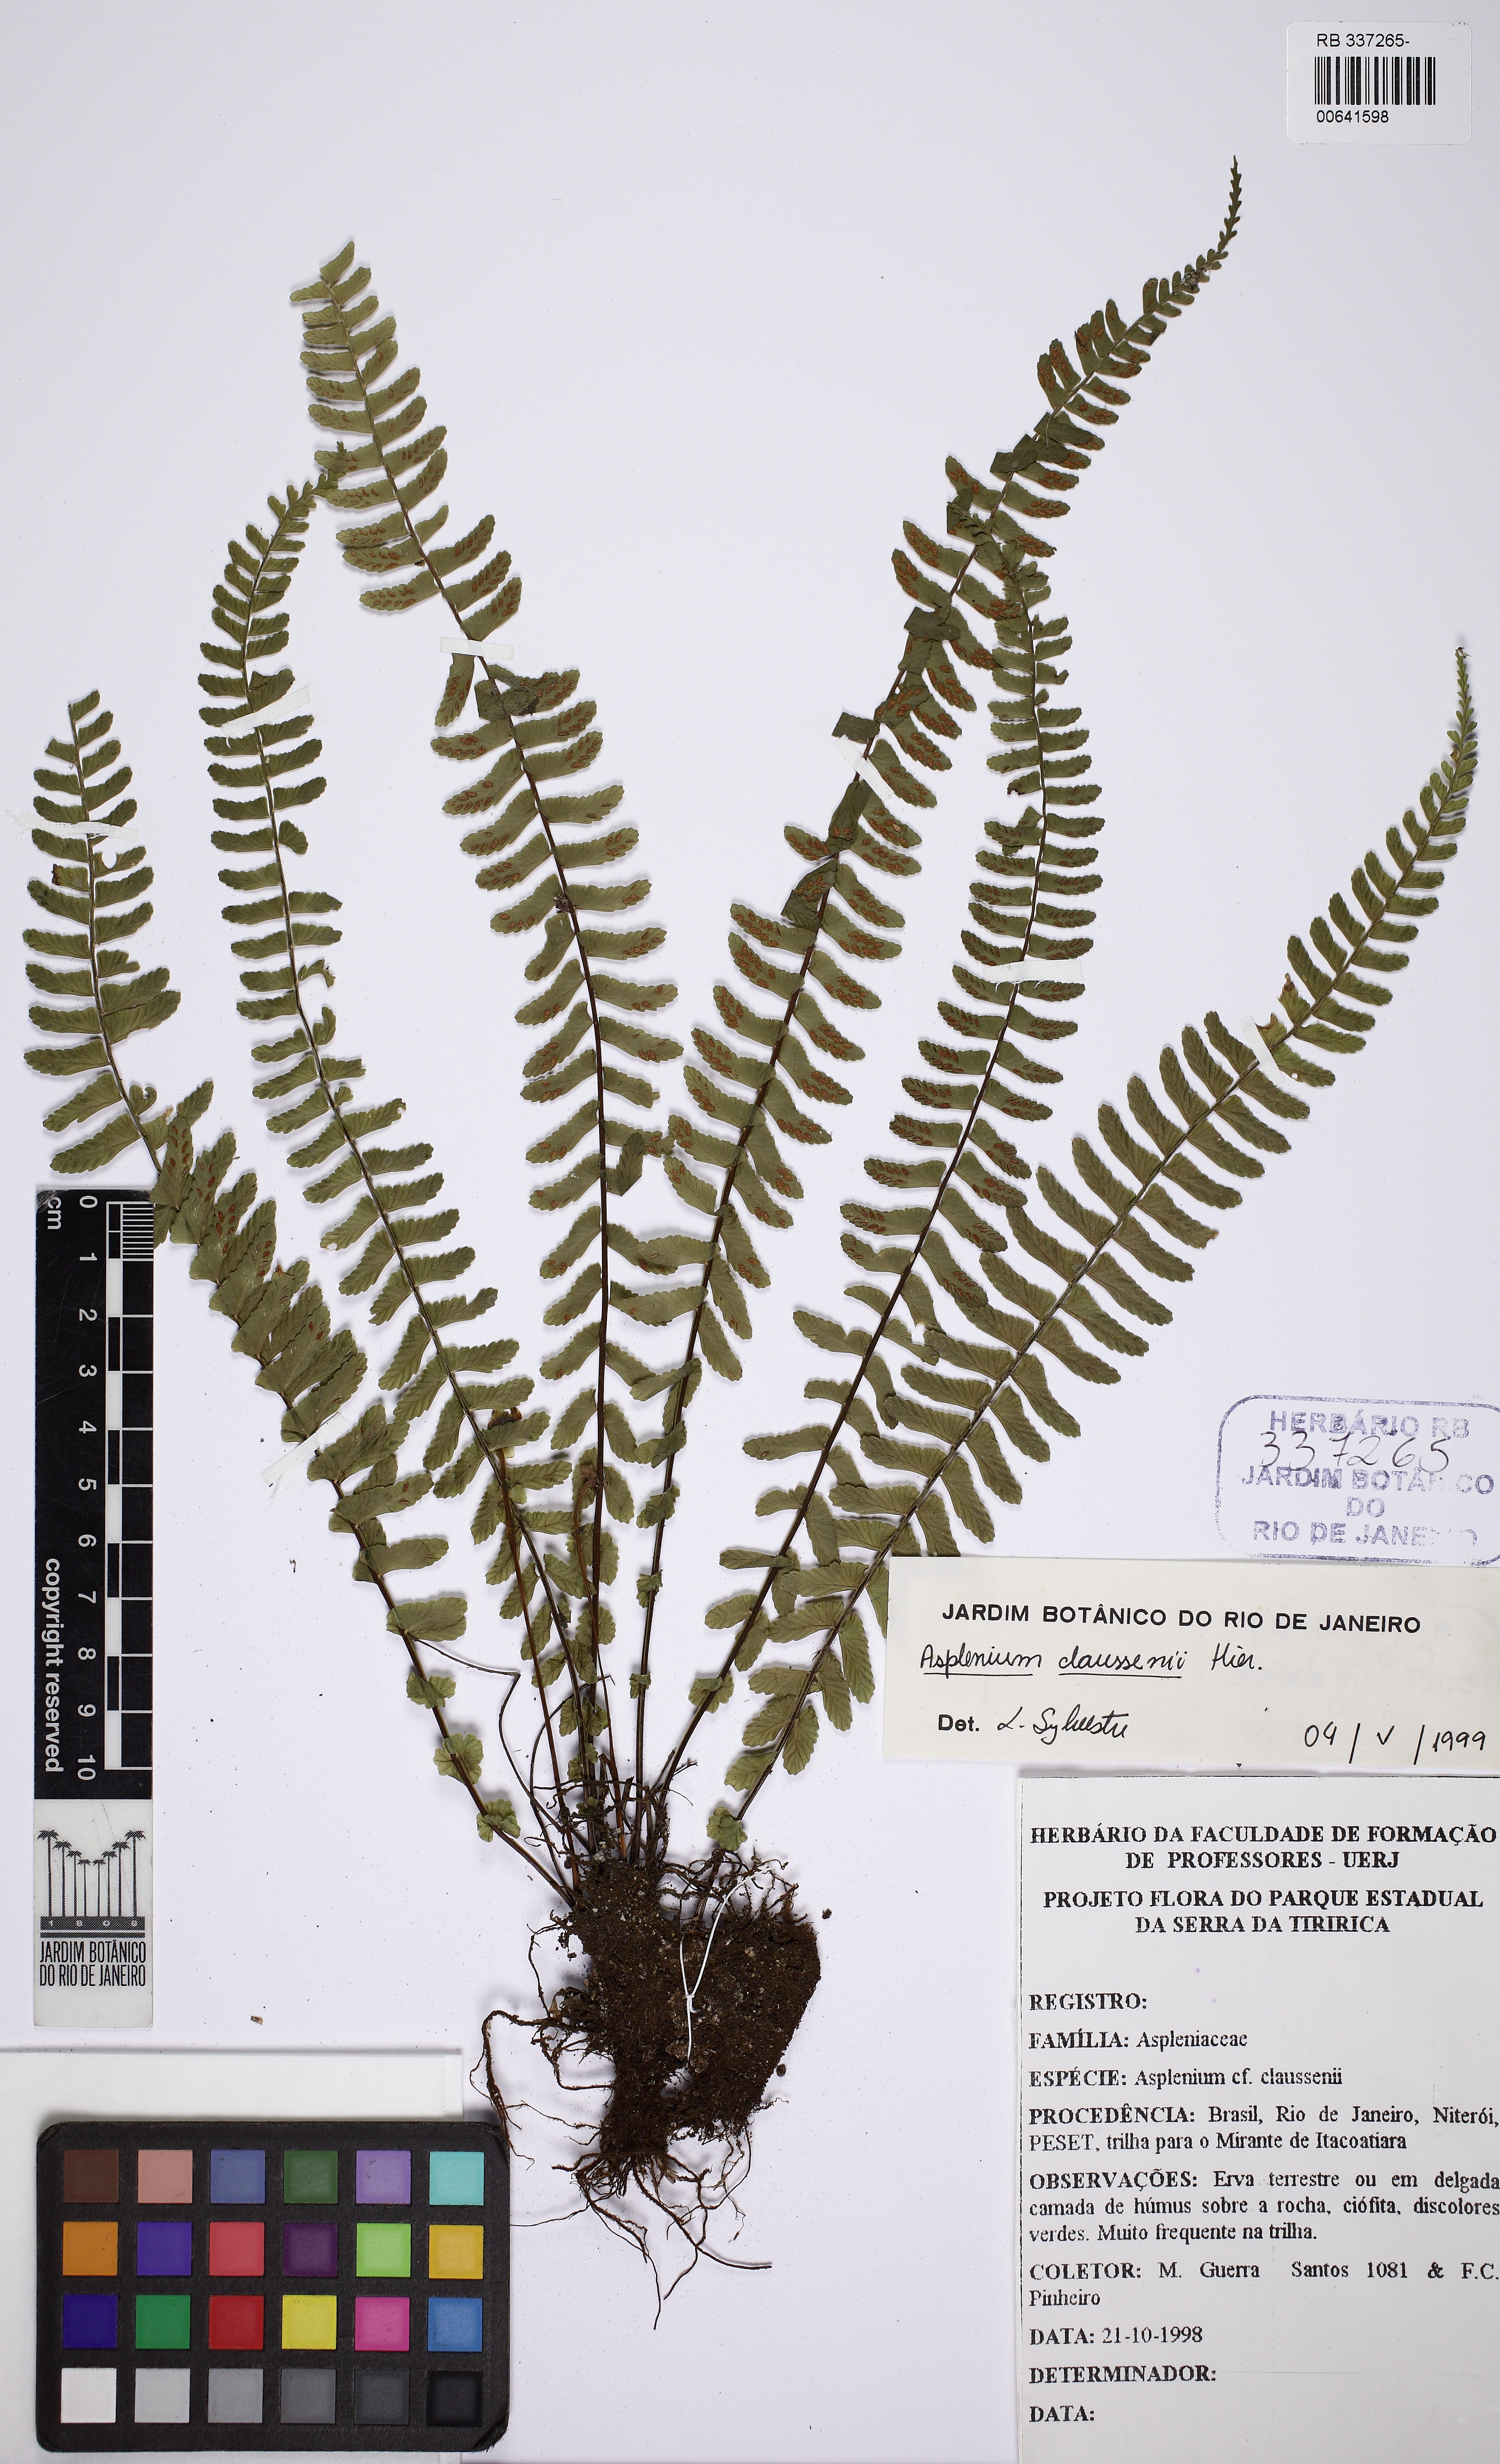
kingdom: Plantae
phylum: Tracheophyta
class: Polypodiopsida
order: Polypodiales
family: Aspleniaceae
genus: Asplenium
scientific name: Asplenium claussenii
